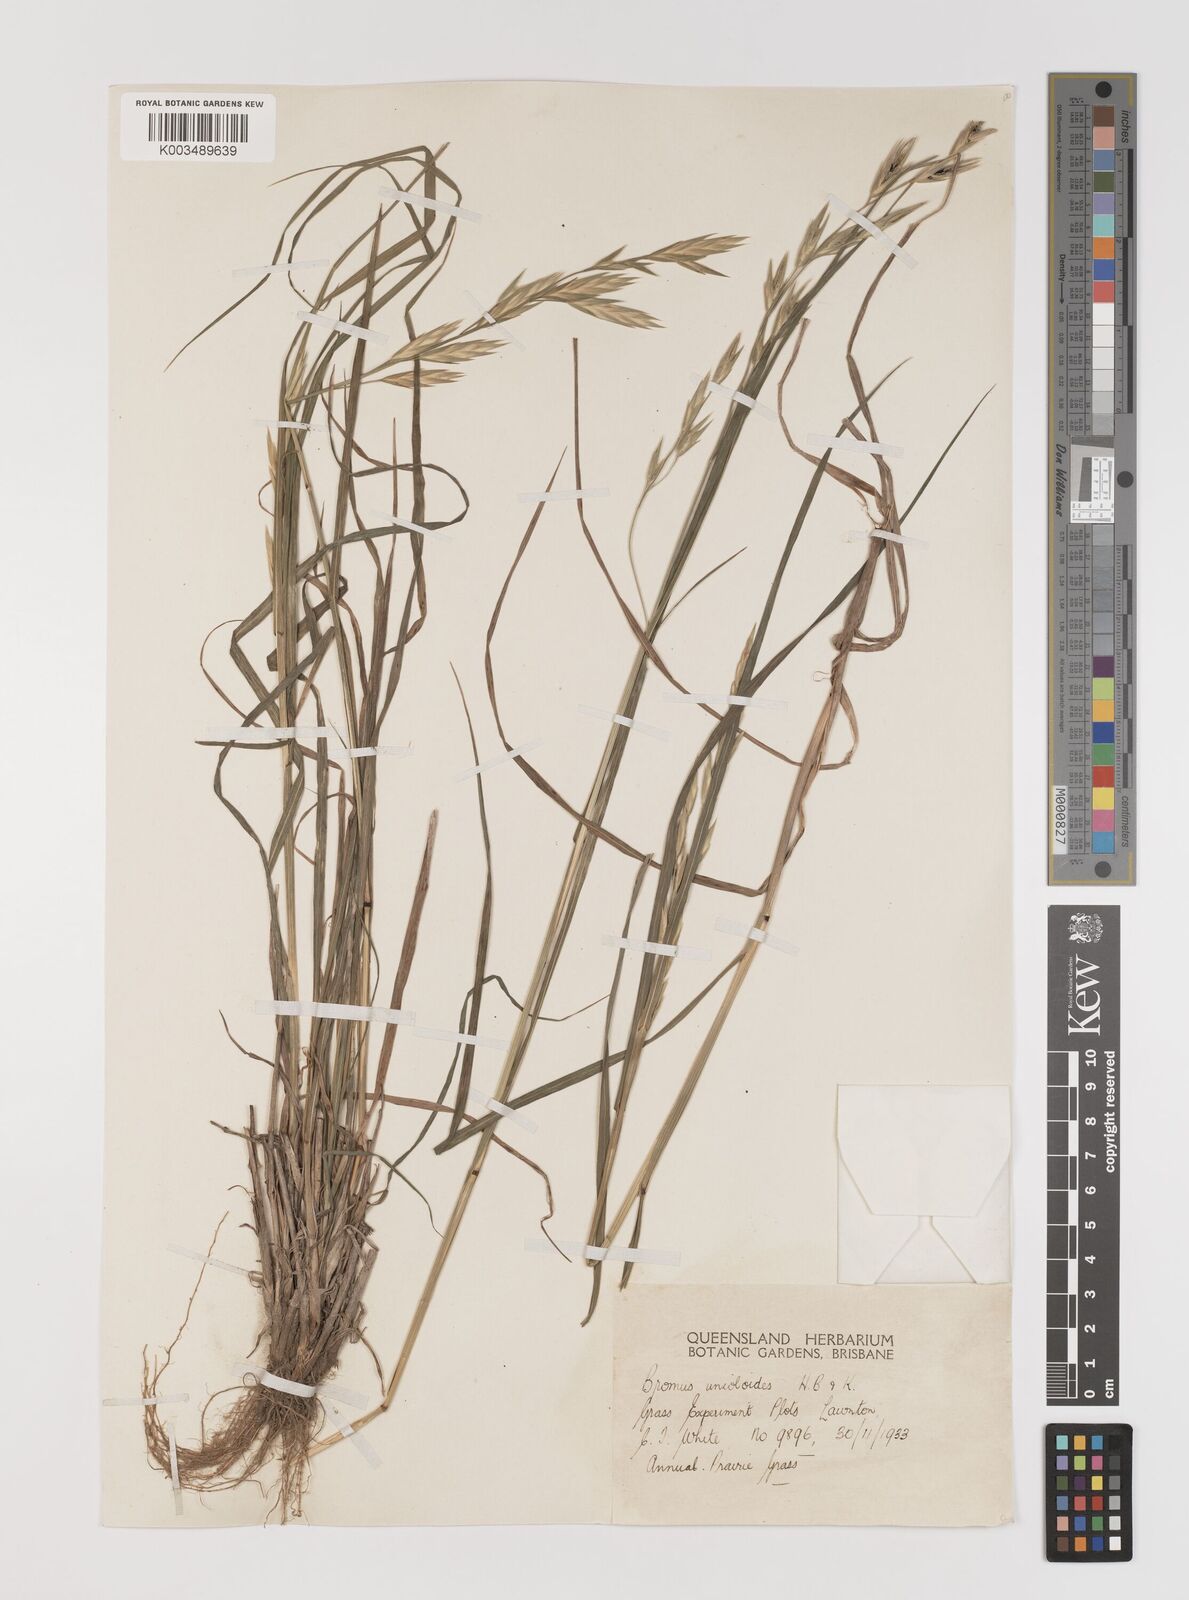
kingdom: Plantae
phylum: Tracheophyta
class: Liliopsida
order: Poales
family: Poaceae
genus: Bromus
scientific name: Bromus catharticus
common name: Rescuegrass
